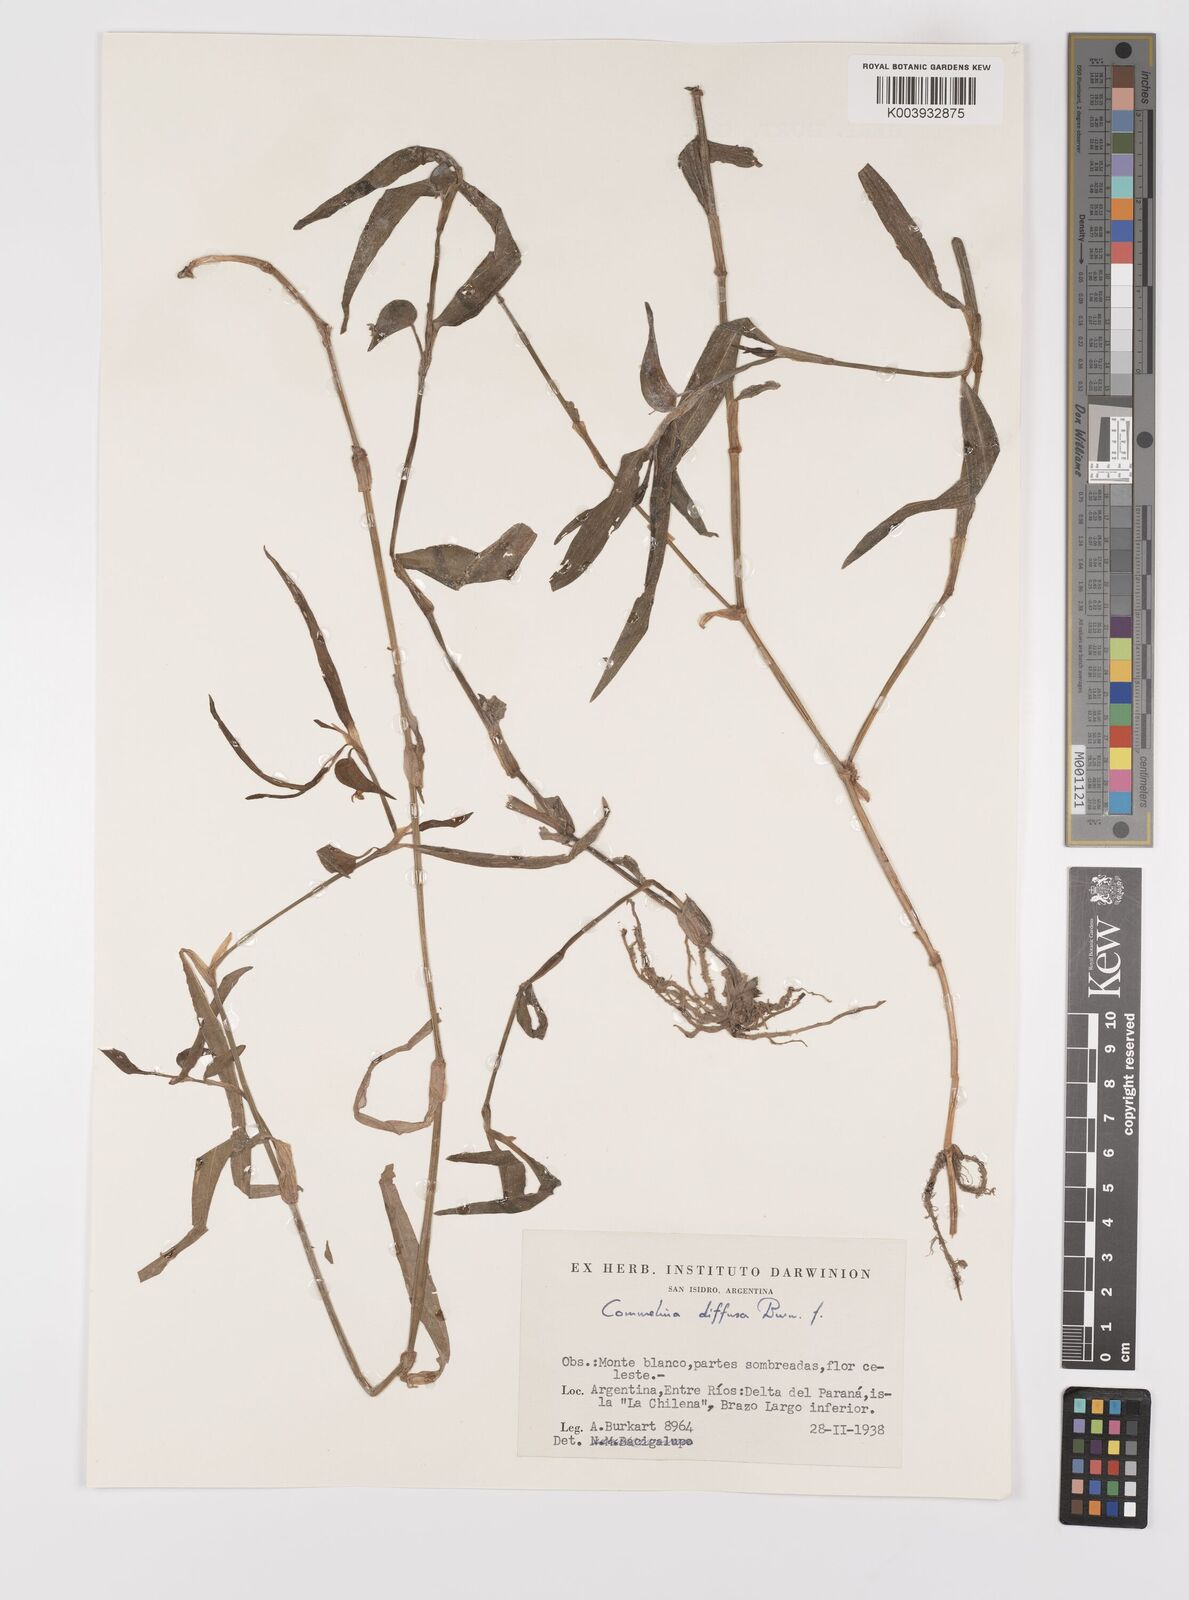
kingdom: Plantae
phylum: Tracheophyta
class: Liliopsida
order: Commelinales
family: Commelinaceae
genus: Commelina
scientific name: Commelina diffusa
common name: Climbing dayflower
